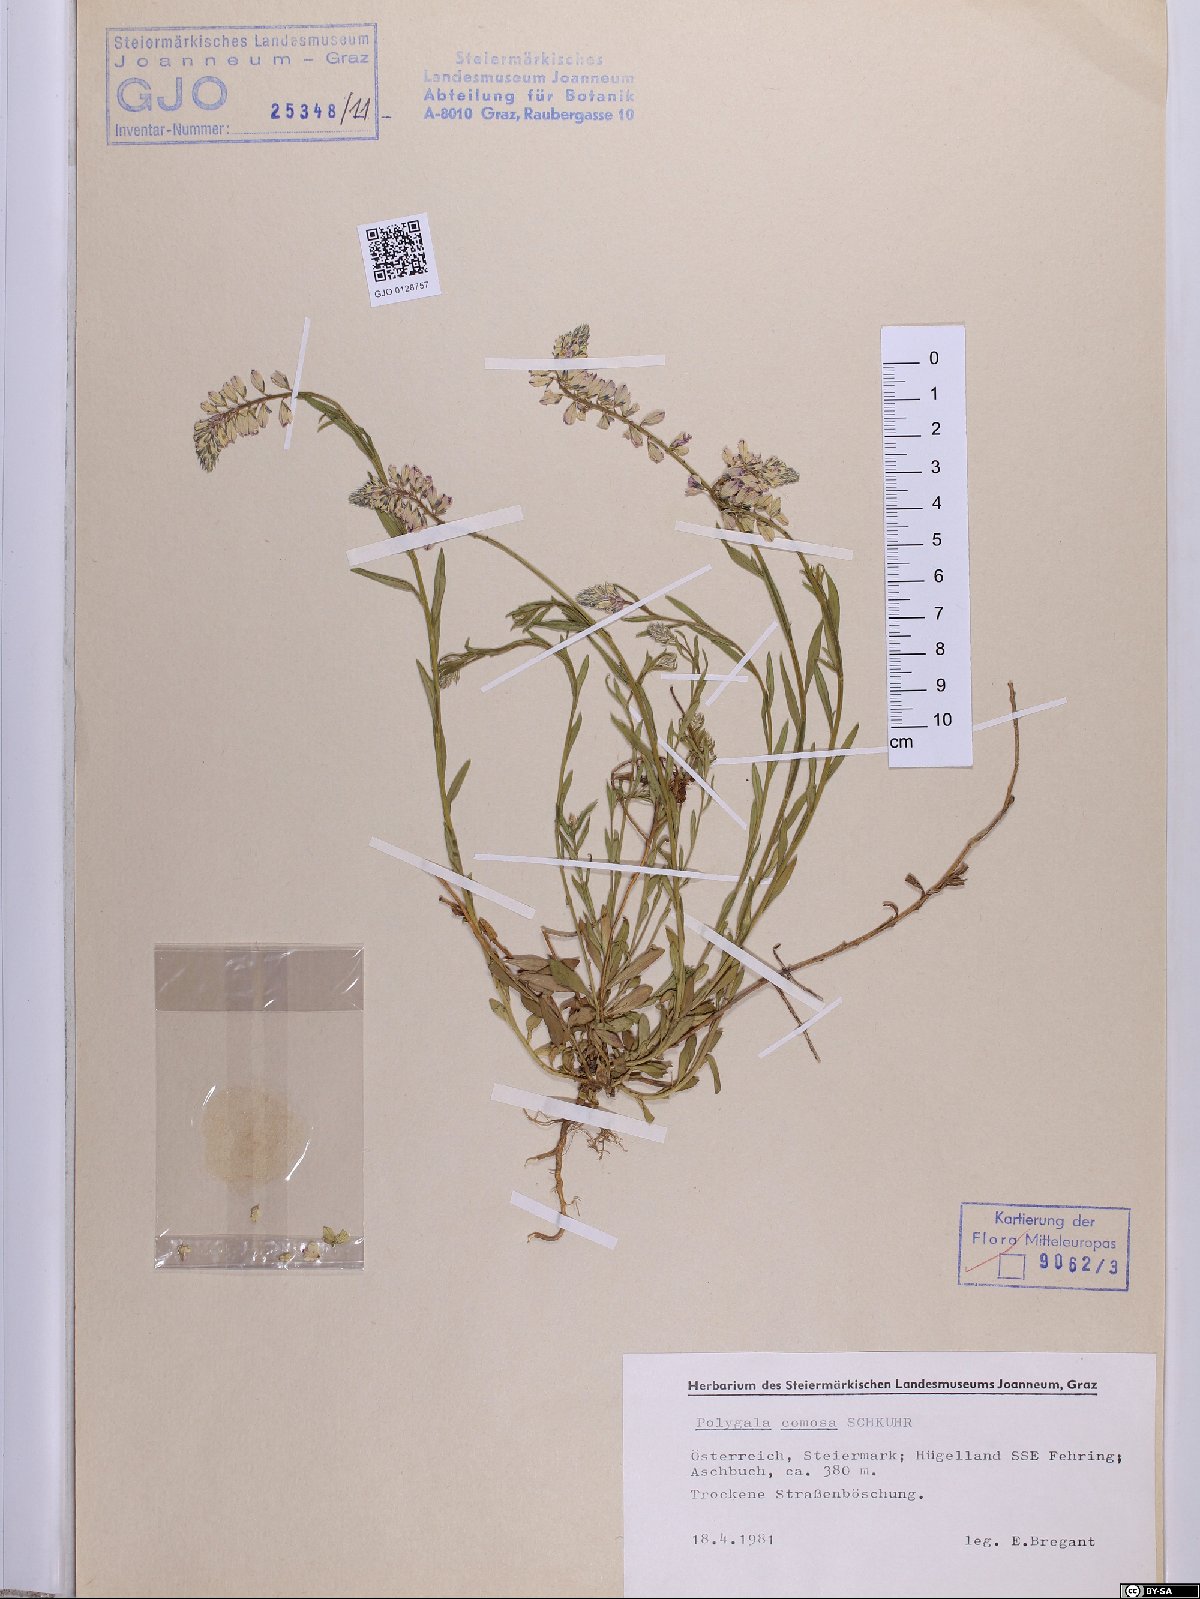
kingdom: Plantae
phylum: Tracheophyta
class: Magnoliopsida
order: Fabales
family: Polygalaceae
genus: Polygala
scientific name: Polygala comosa
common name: Tufted milkwort
